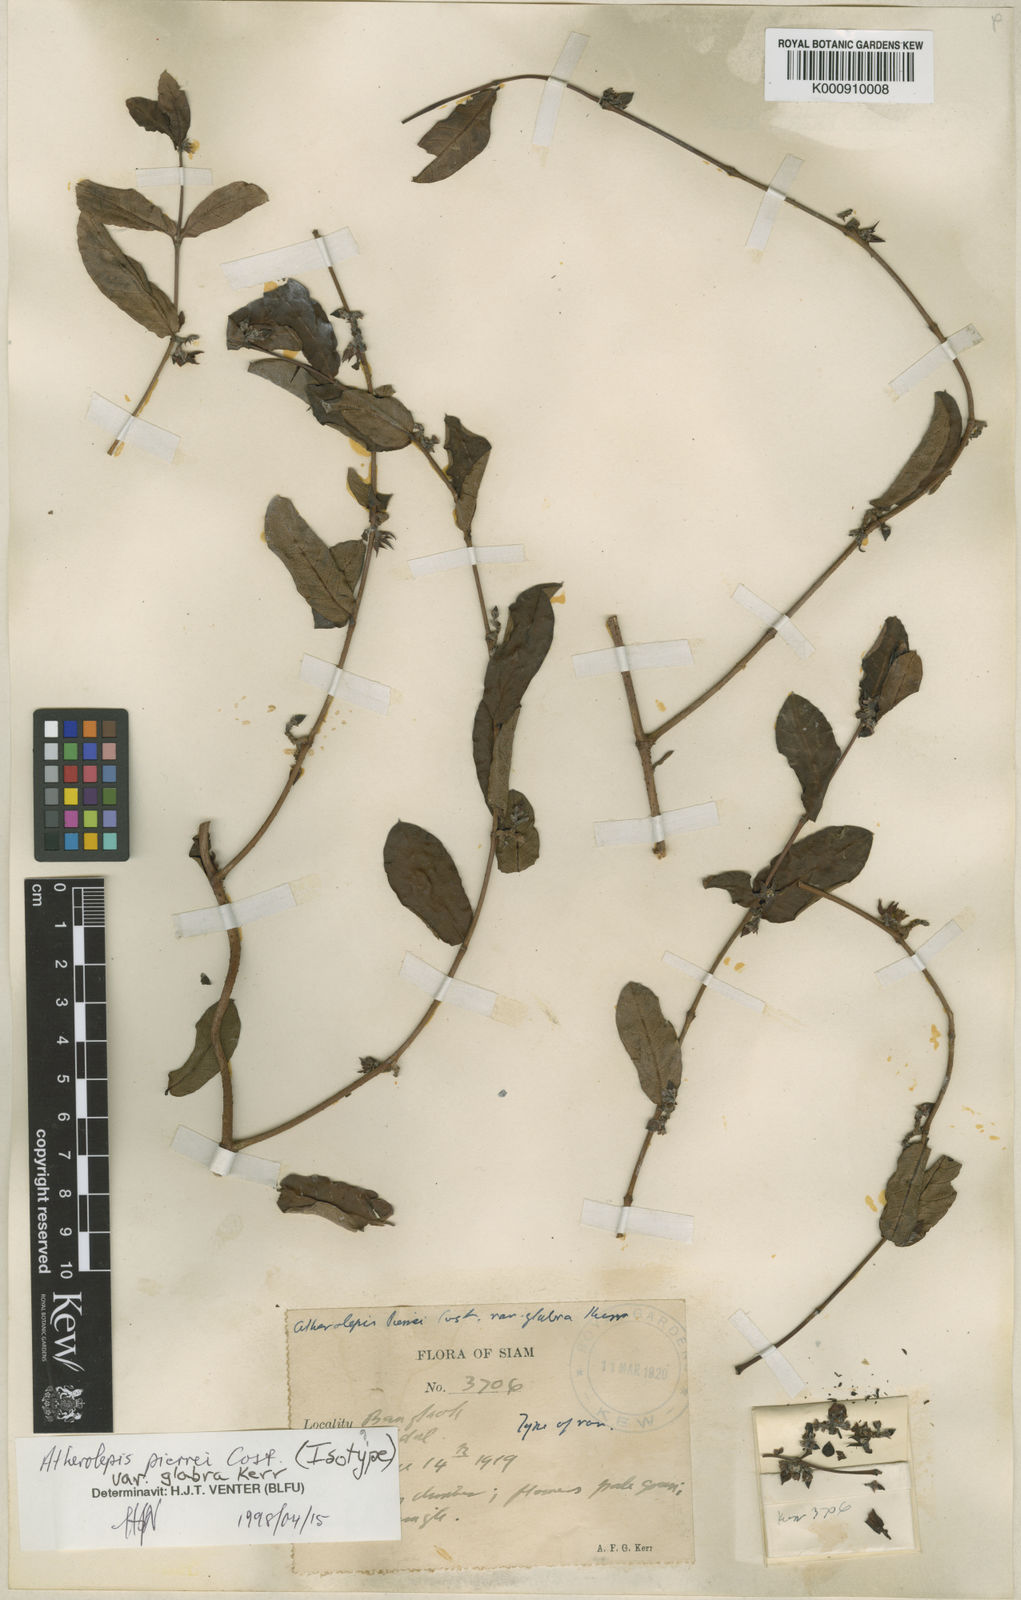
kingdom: Plantae
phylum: Tracheophyta
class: Magnoliopsida
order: Gentianales
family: Apocynaceae
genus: Finlaysonia
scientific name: Finlaysonia pierrei
